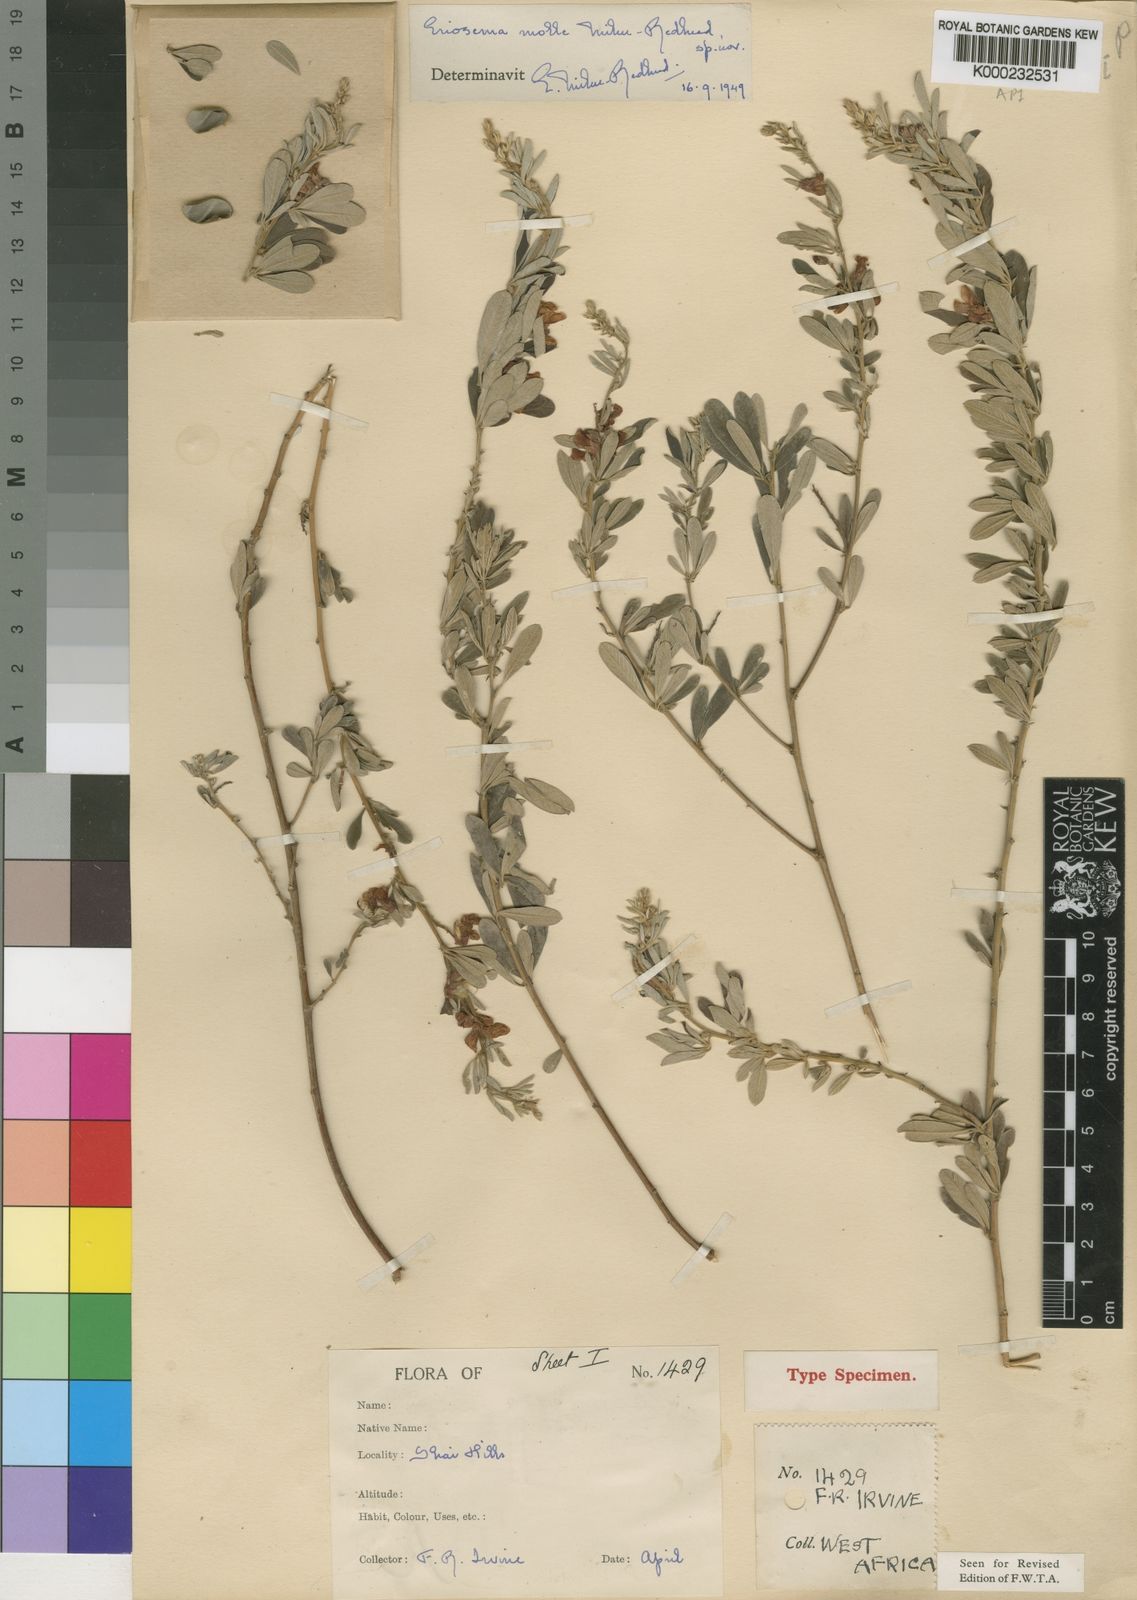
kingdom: Plantae
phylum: Tracheophyta
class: Magnoliopsida
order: Fabales
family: Fabaceae
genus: Eriosema
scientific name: Eriosema molle
